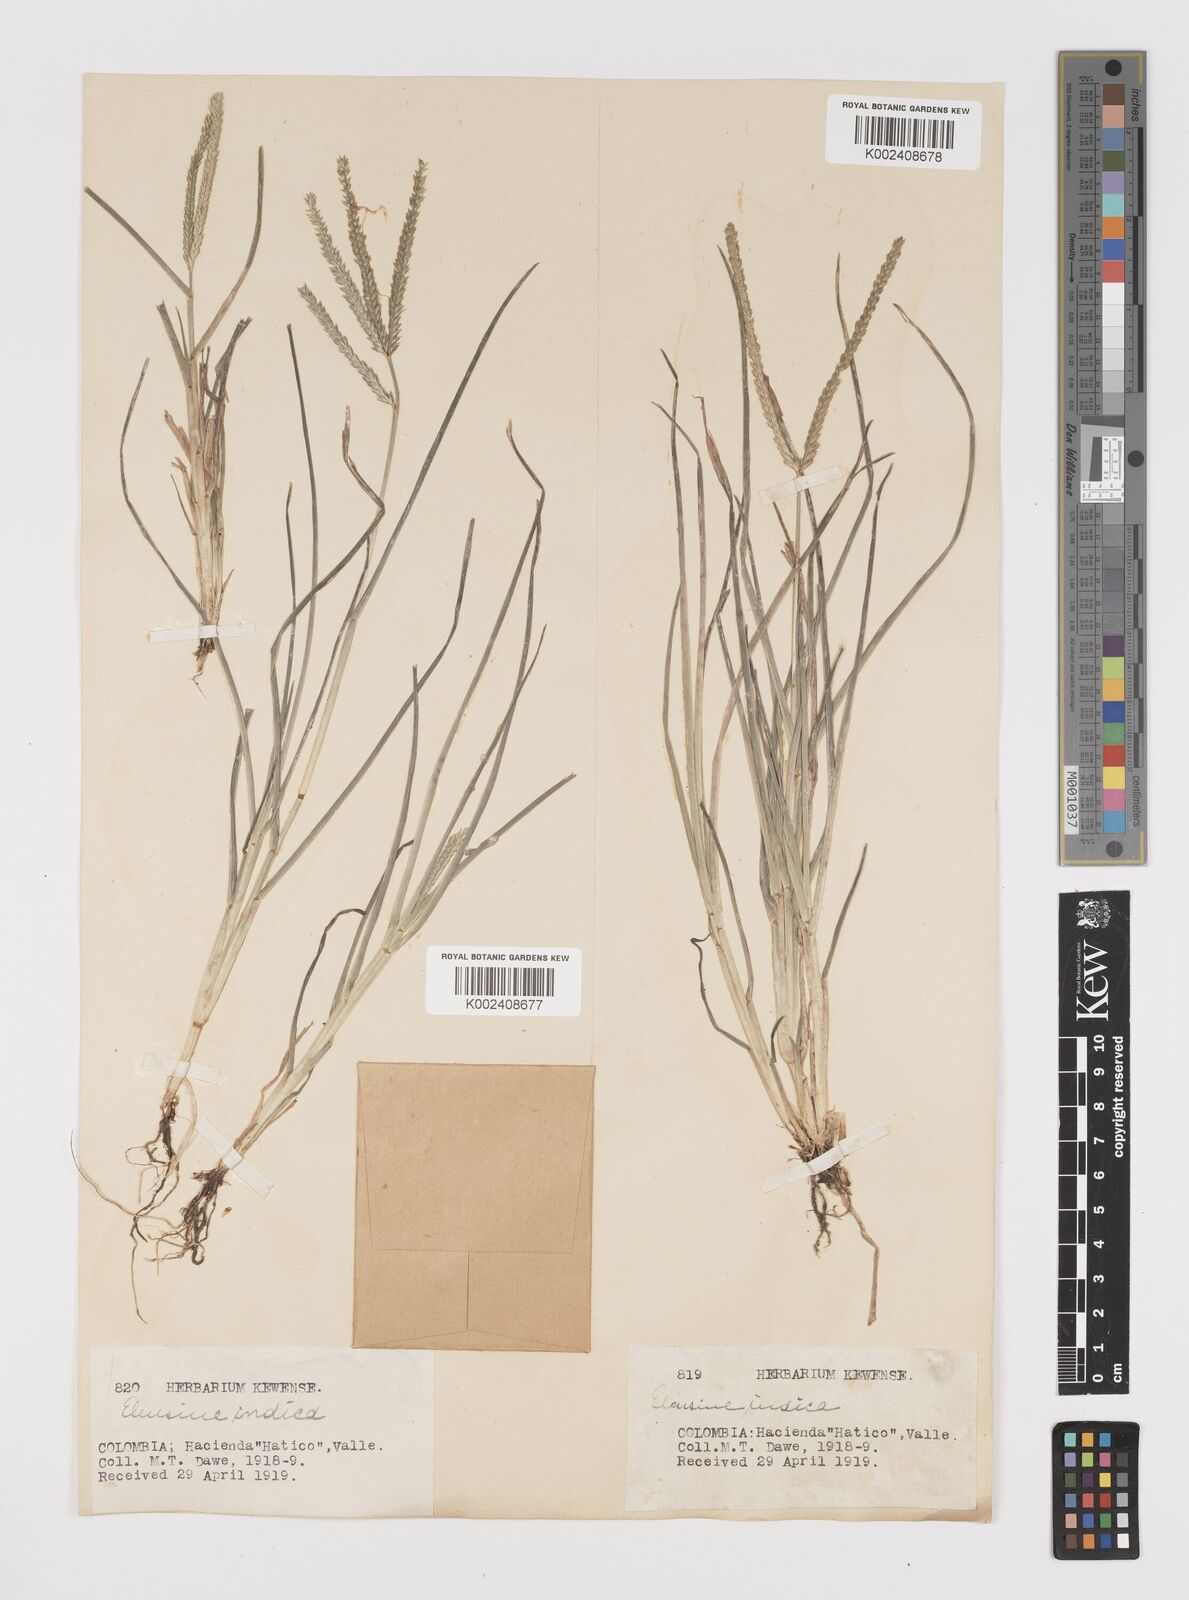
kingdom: Plantae
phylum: Tracheophyta
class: Liliopsida
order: Poales
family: Poaceae
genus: Eleusine
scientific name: Eleusine indica
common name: Yard-grass
